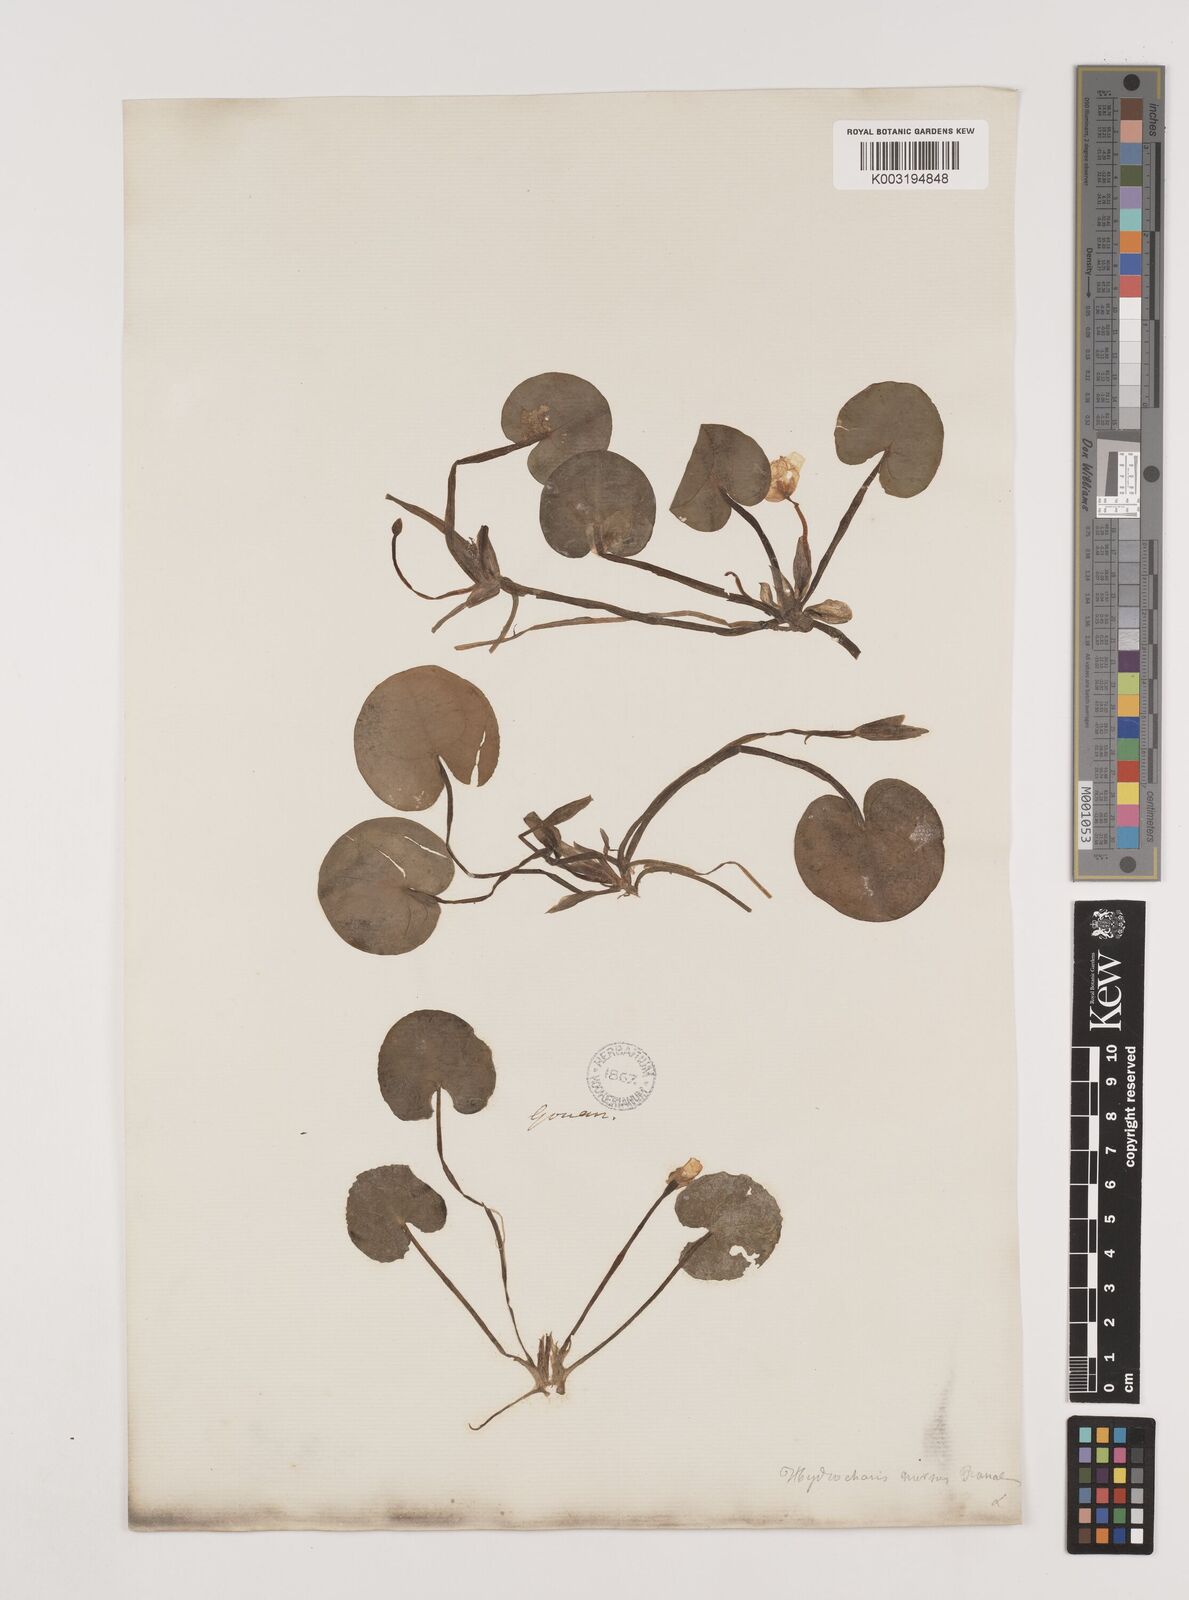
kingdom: Plantae
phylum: Tracheophyta
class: Liliopsida
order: Alismatales
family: Hydrocharitaceae
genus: Hydrocharis
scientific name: Hydrocharis morsus-ranae
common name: Frogbit
